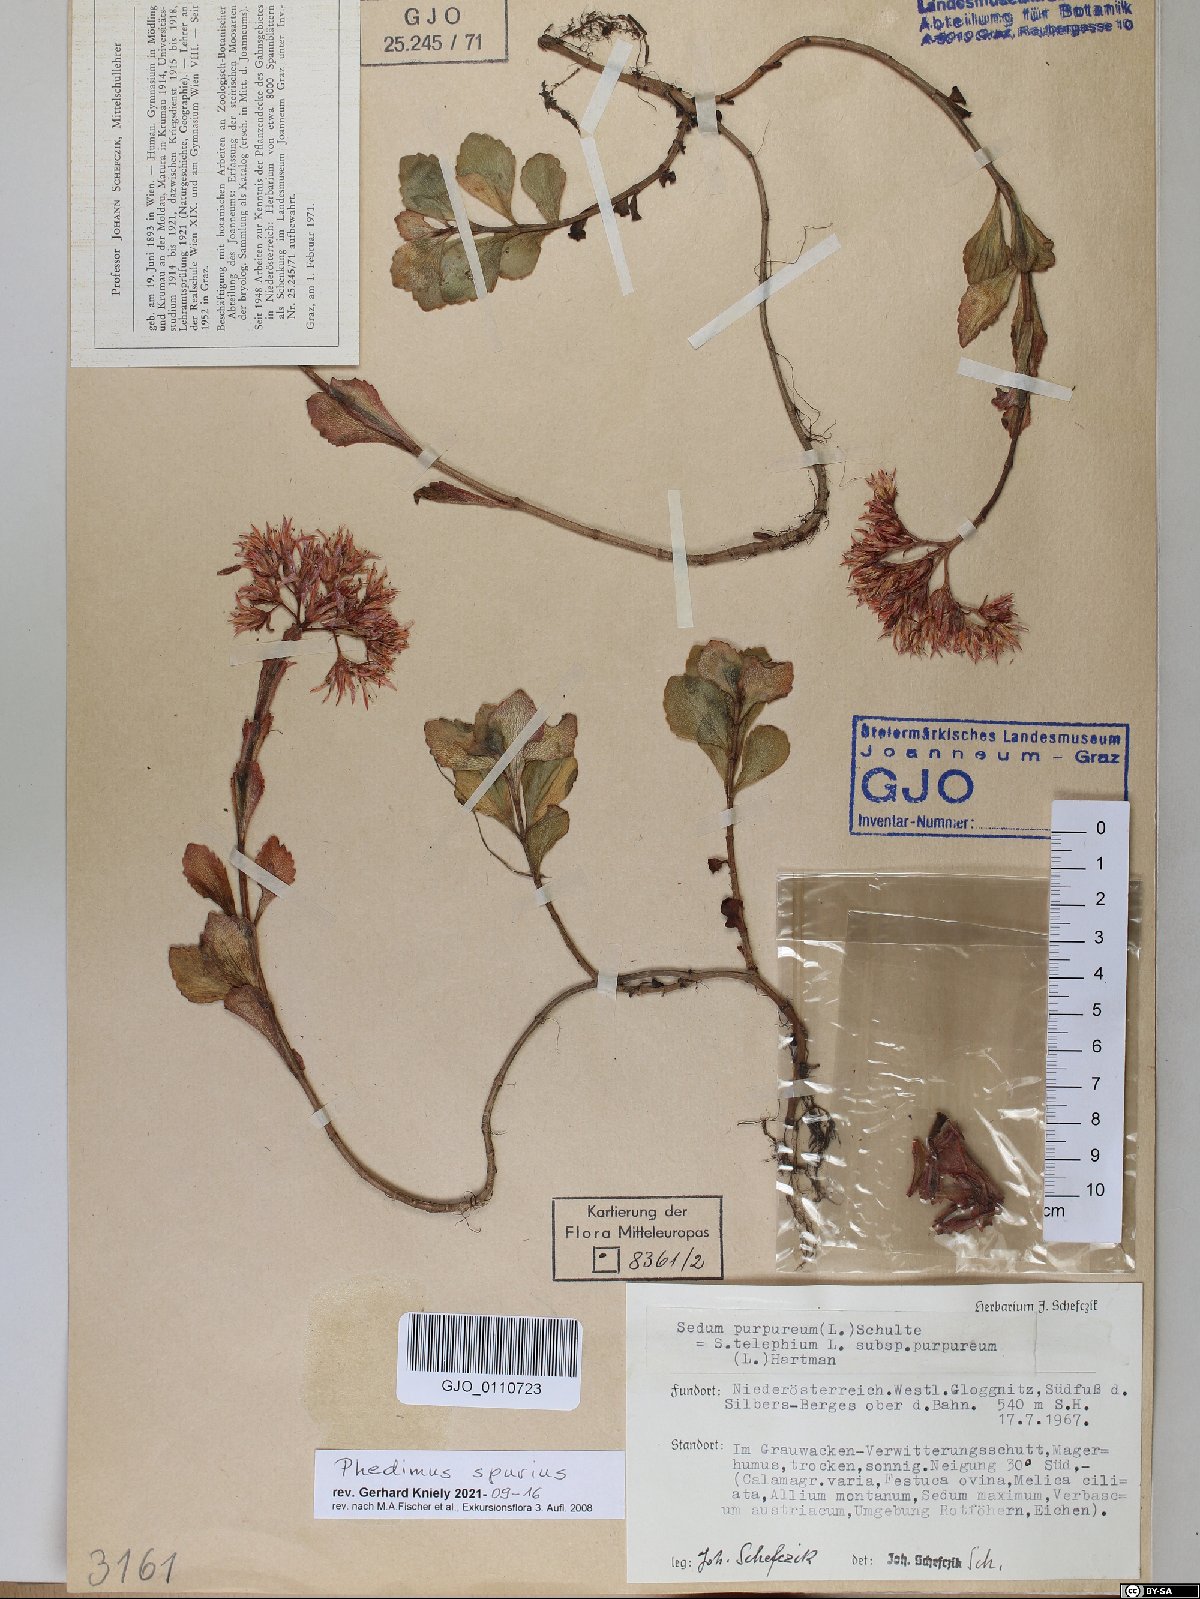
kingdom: Plantae
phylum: Tracheophyta
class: Magnoliopsida
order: Saxifragales
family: Crassulaceae
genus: Phedimus
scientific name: Phedimus spurius
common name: Caucasian stonecrop
